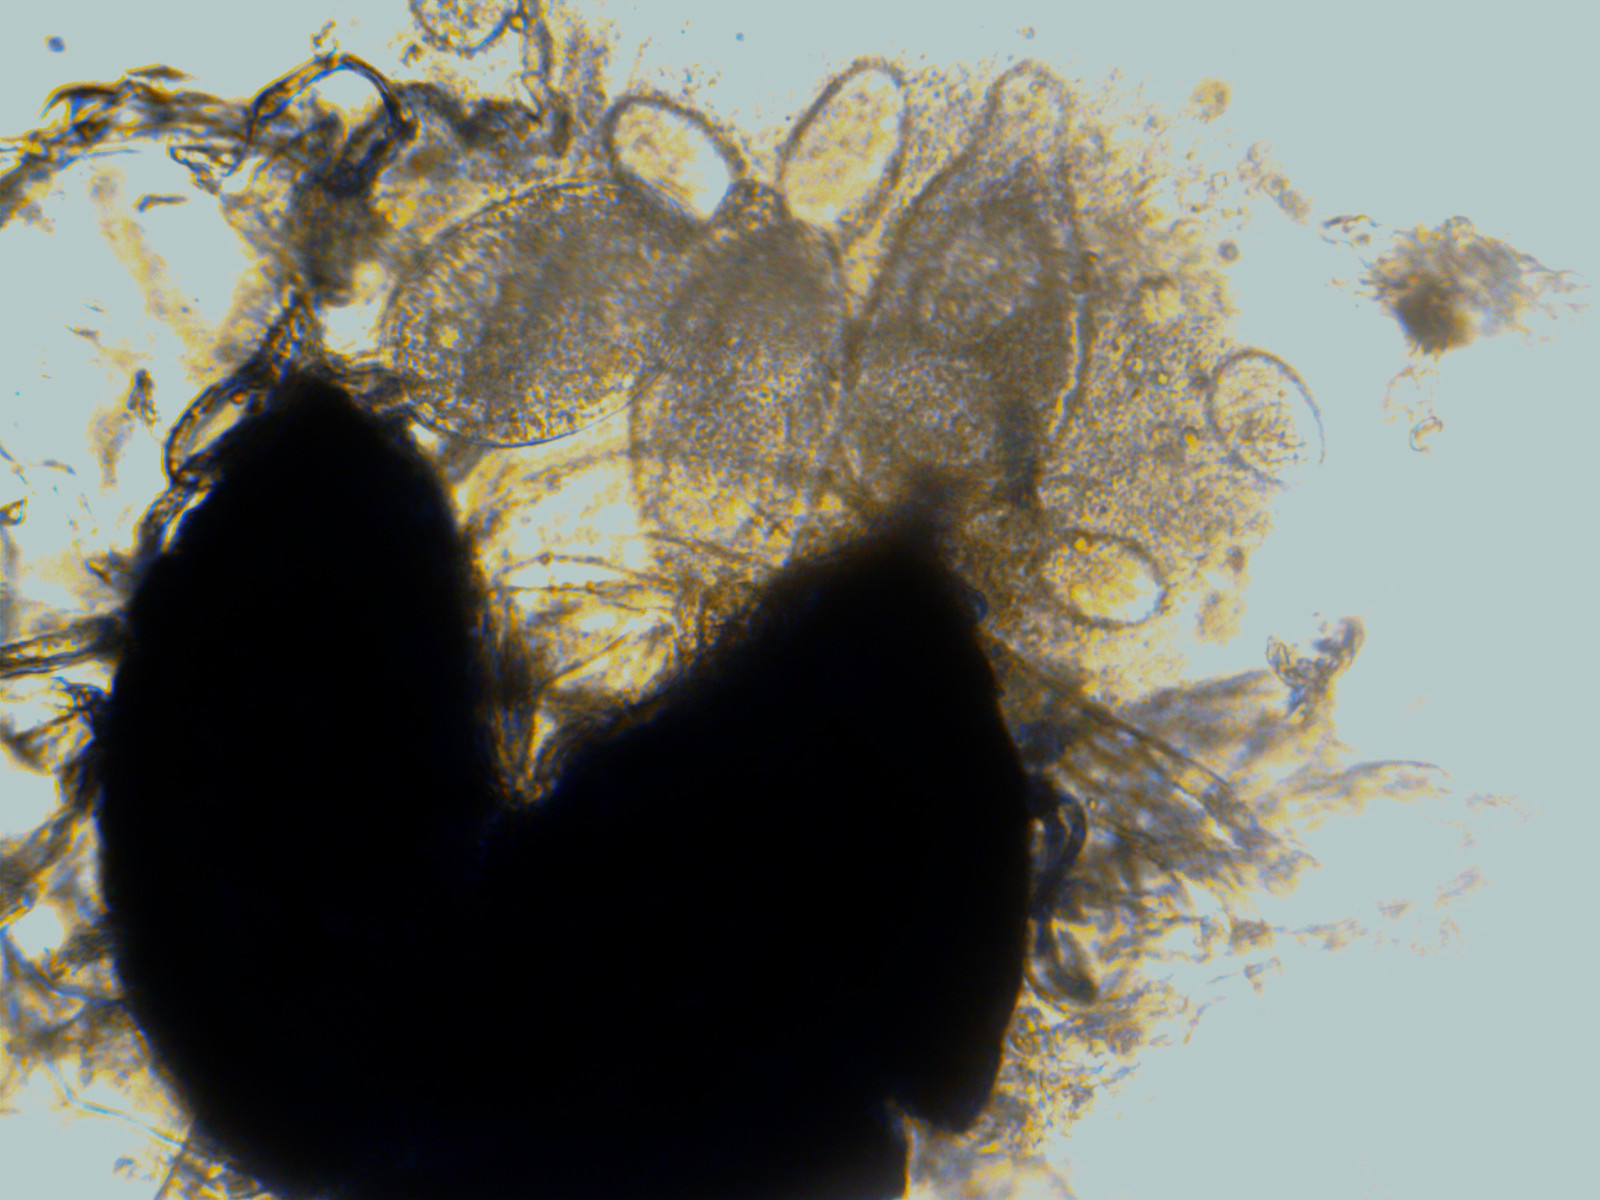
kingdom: Fungi
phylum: Ascomycota
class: Leotiomycetes
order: Helotiales
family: Erysiphaceae
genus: Golovinomyces
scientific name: Golovinomyces monardae
